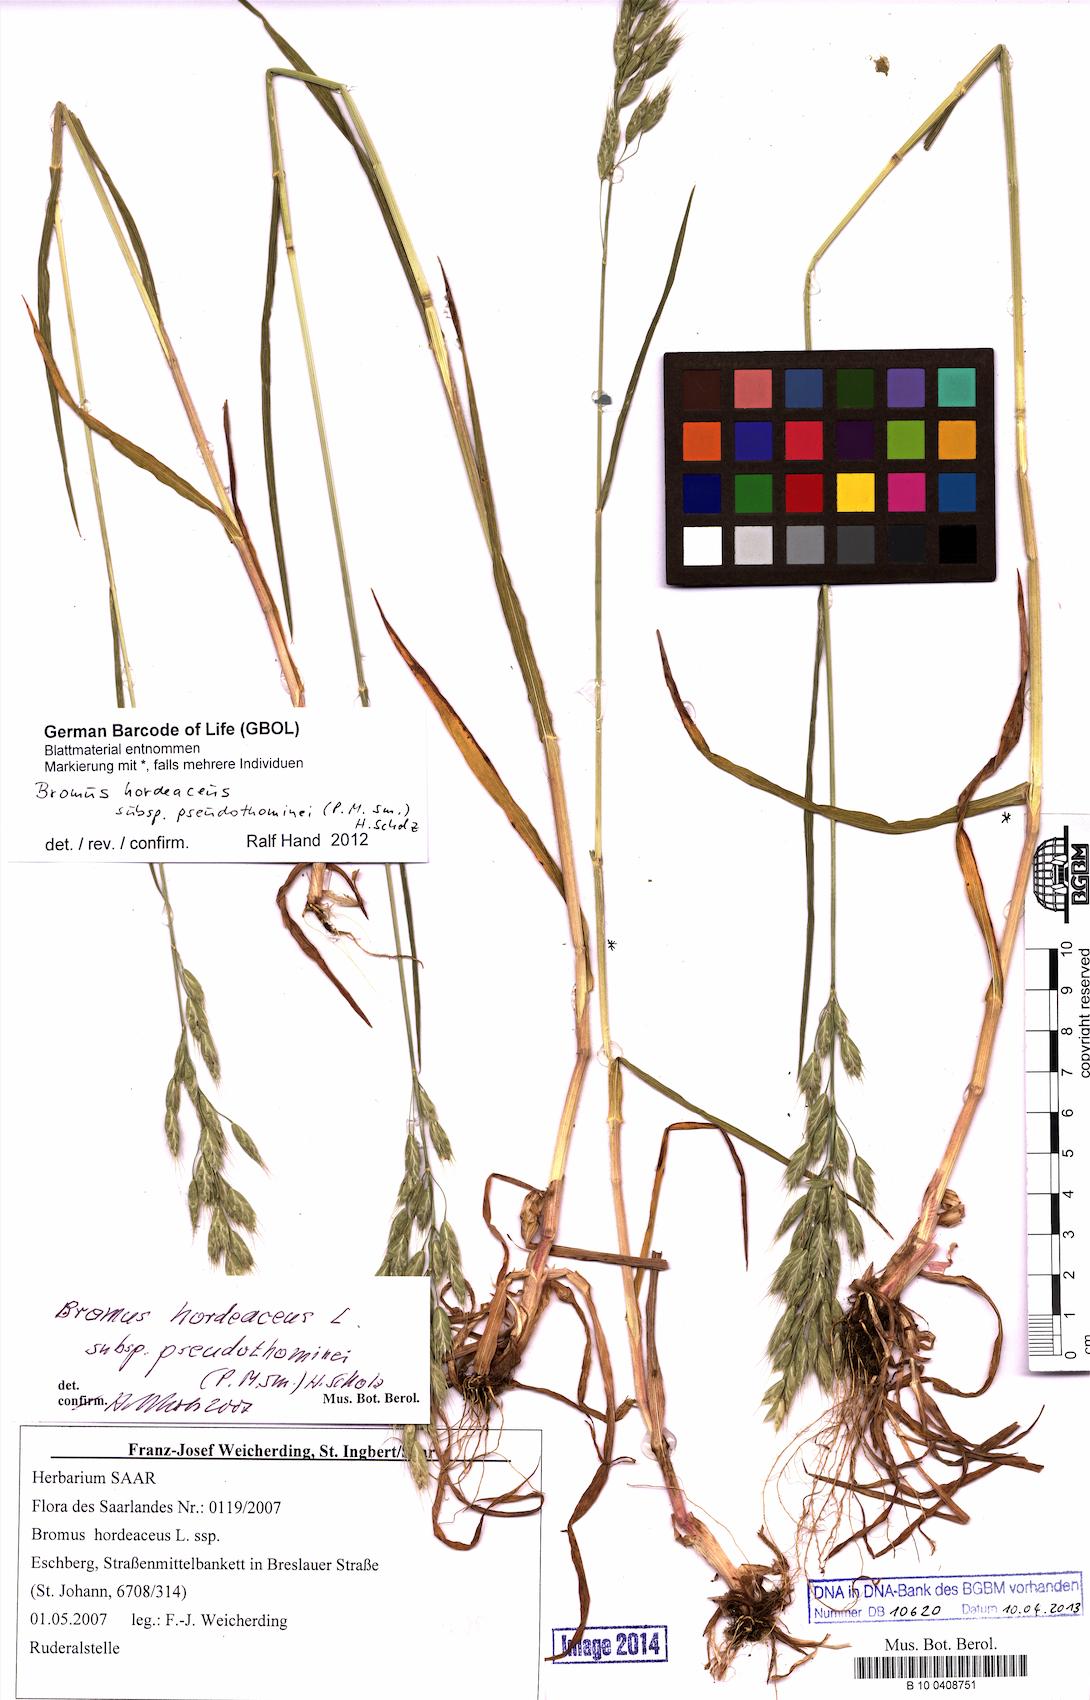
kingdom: Plantae
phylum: Tracheophyta
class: Liliopsida
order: Poales
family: Poaceae
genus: Bromus
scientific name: Bromus ferronii
